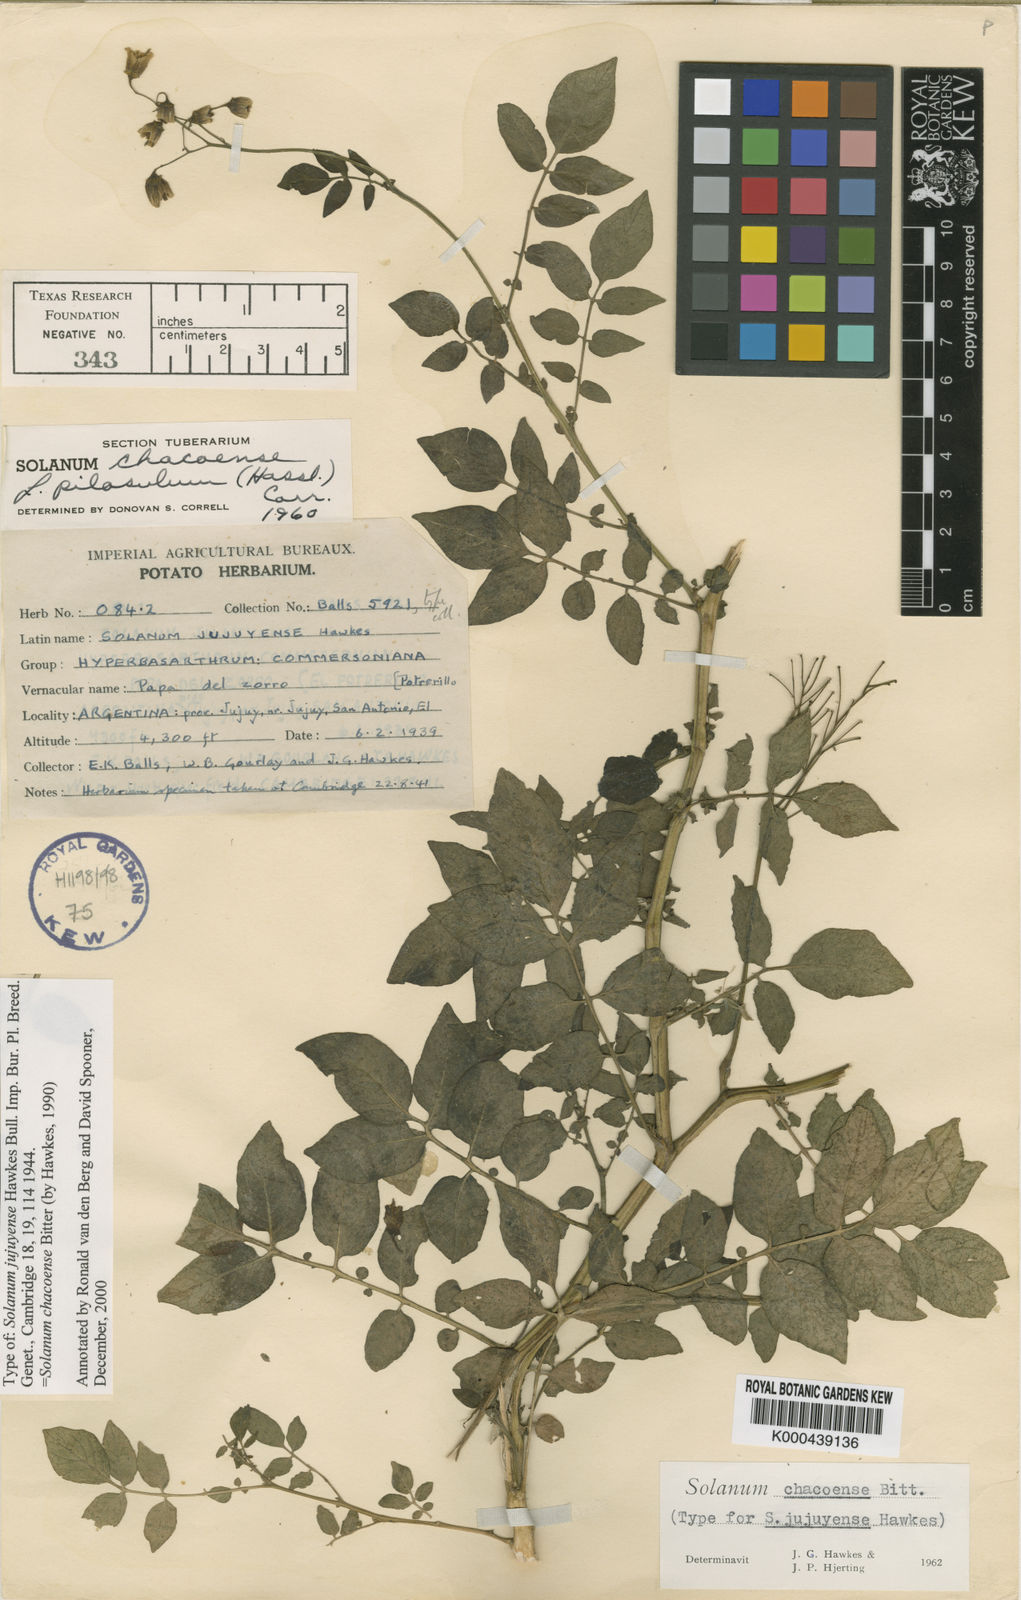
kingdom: Plantae
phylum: Tracheophyta
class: Magnoliopsida
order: Solanales
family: Solanaceae
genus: Solanum
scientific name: Solanum chacoense
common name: Chaco potato
